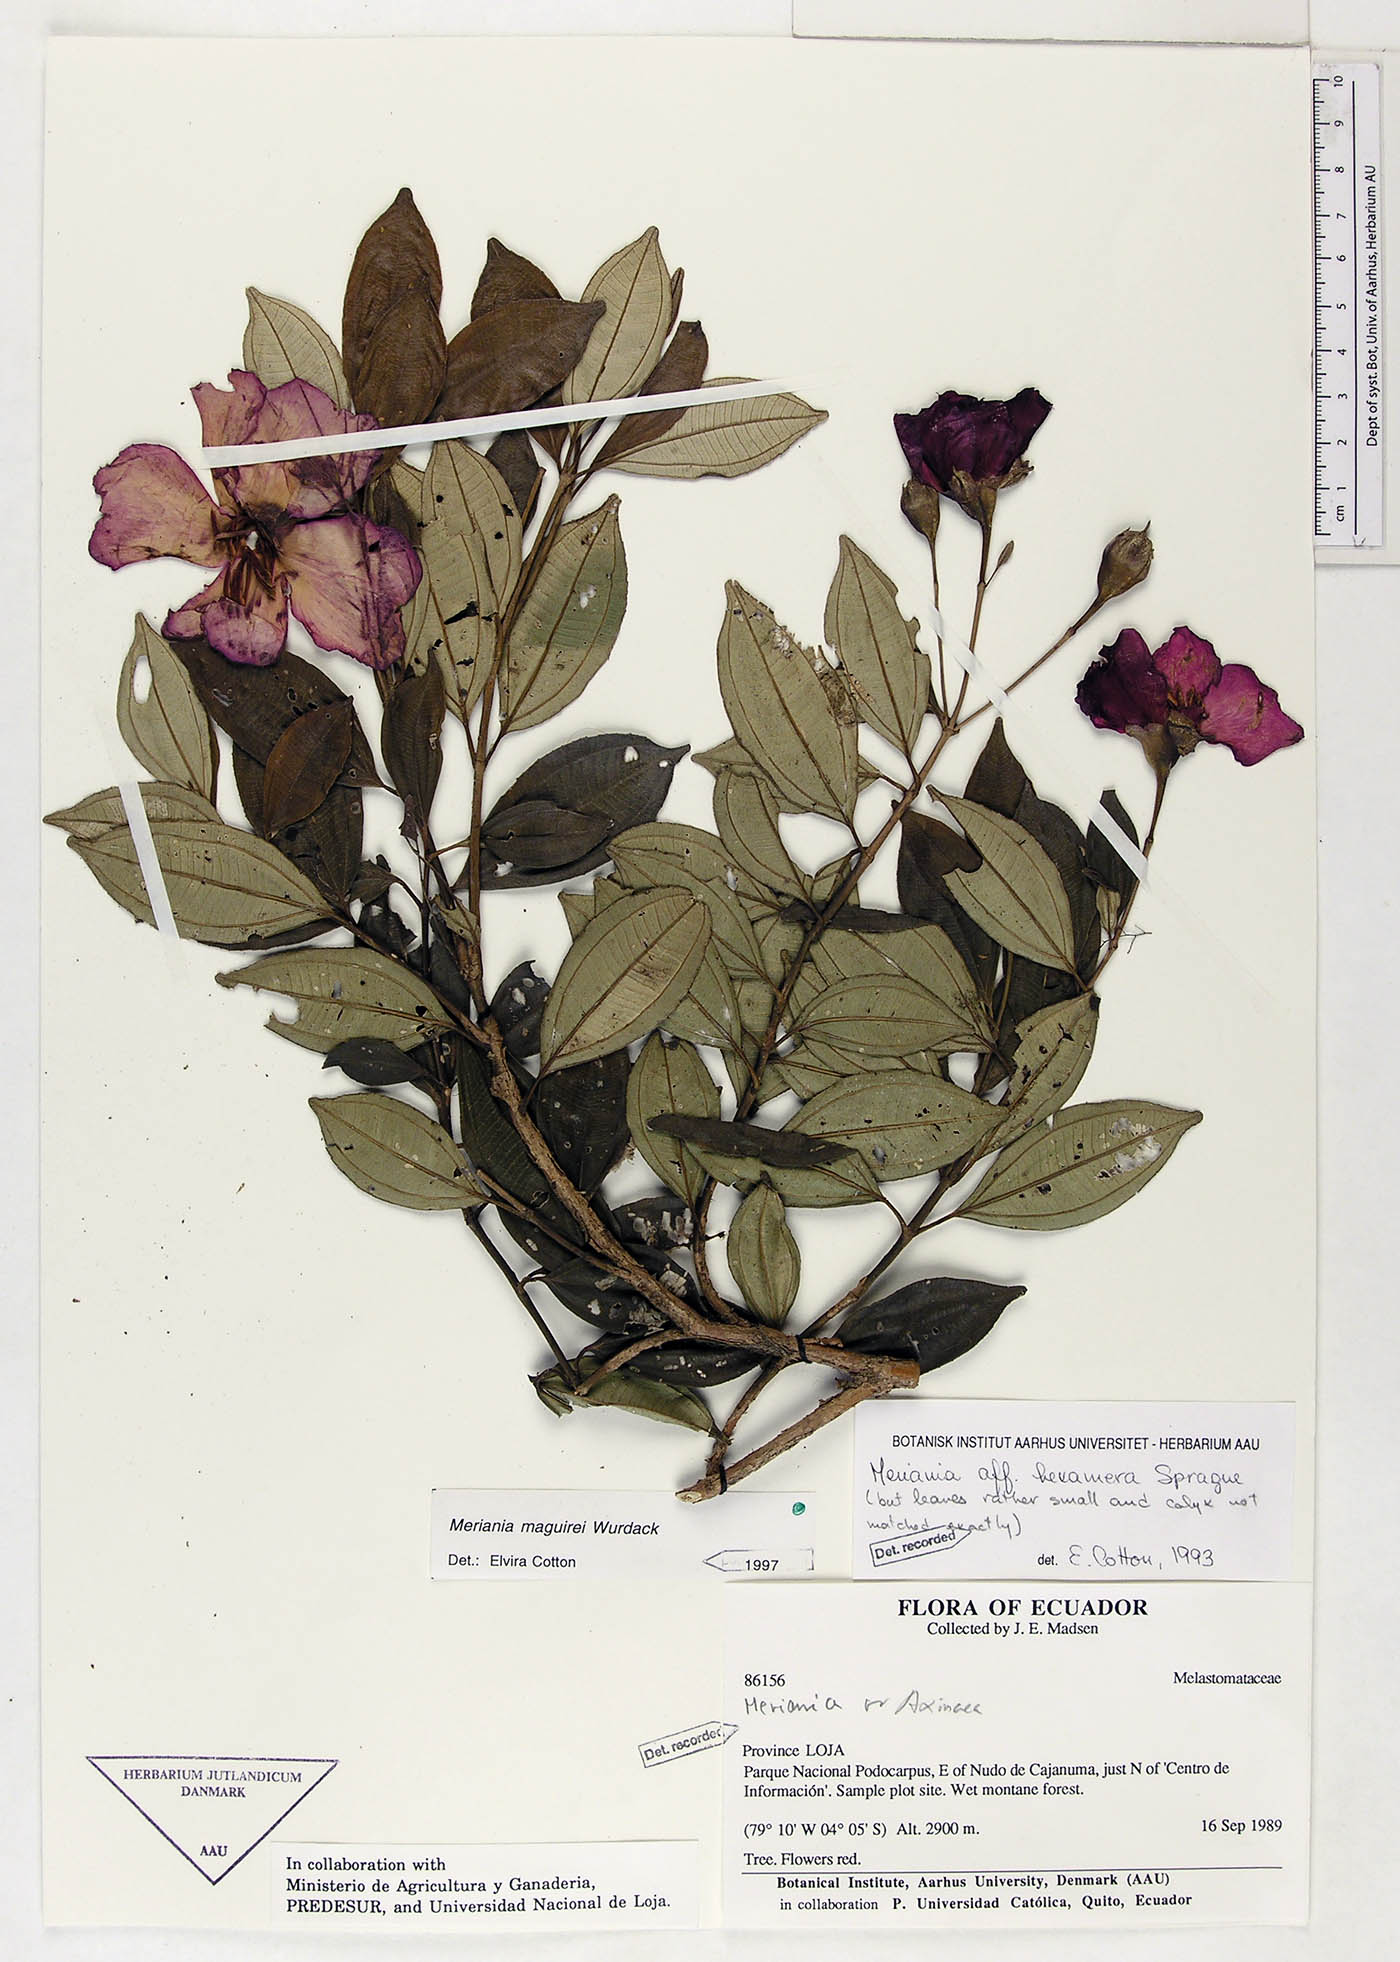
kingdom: Plantae
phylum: Tracheophyta
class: Magnoliopsida
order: Myrtales
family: Melastomataceae
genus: Meriania
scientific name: Meriania maguirei
